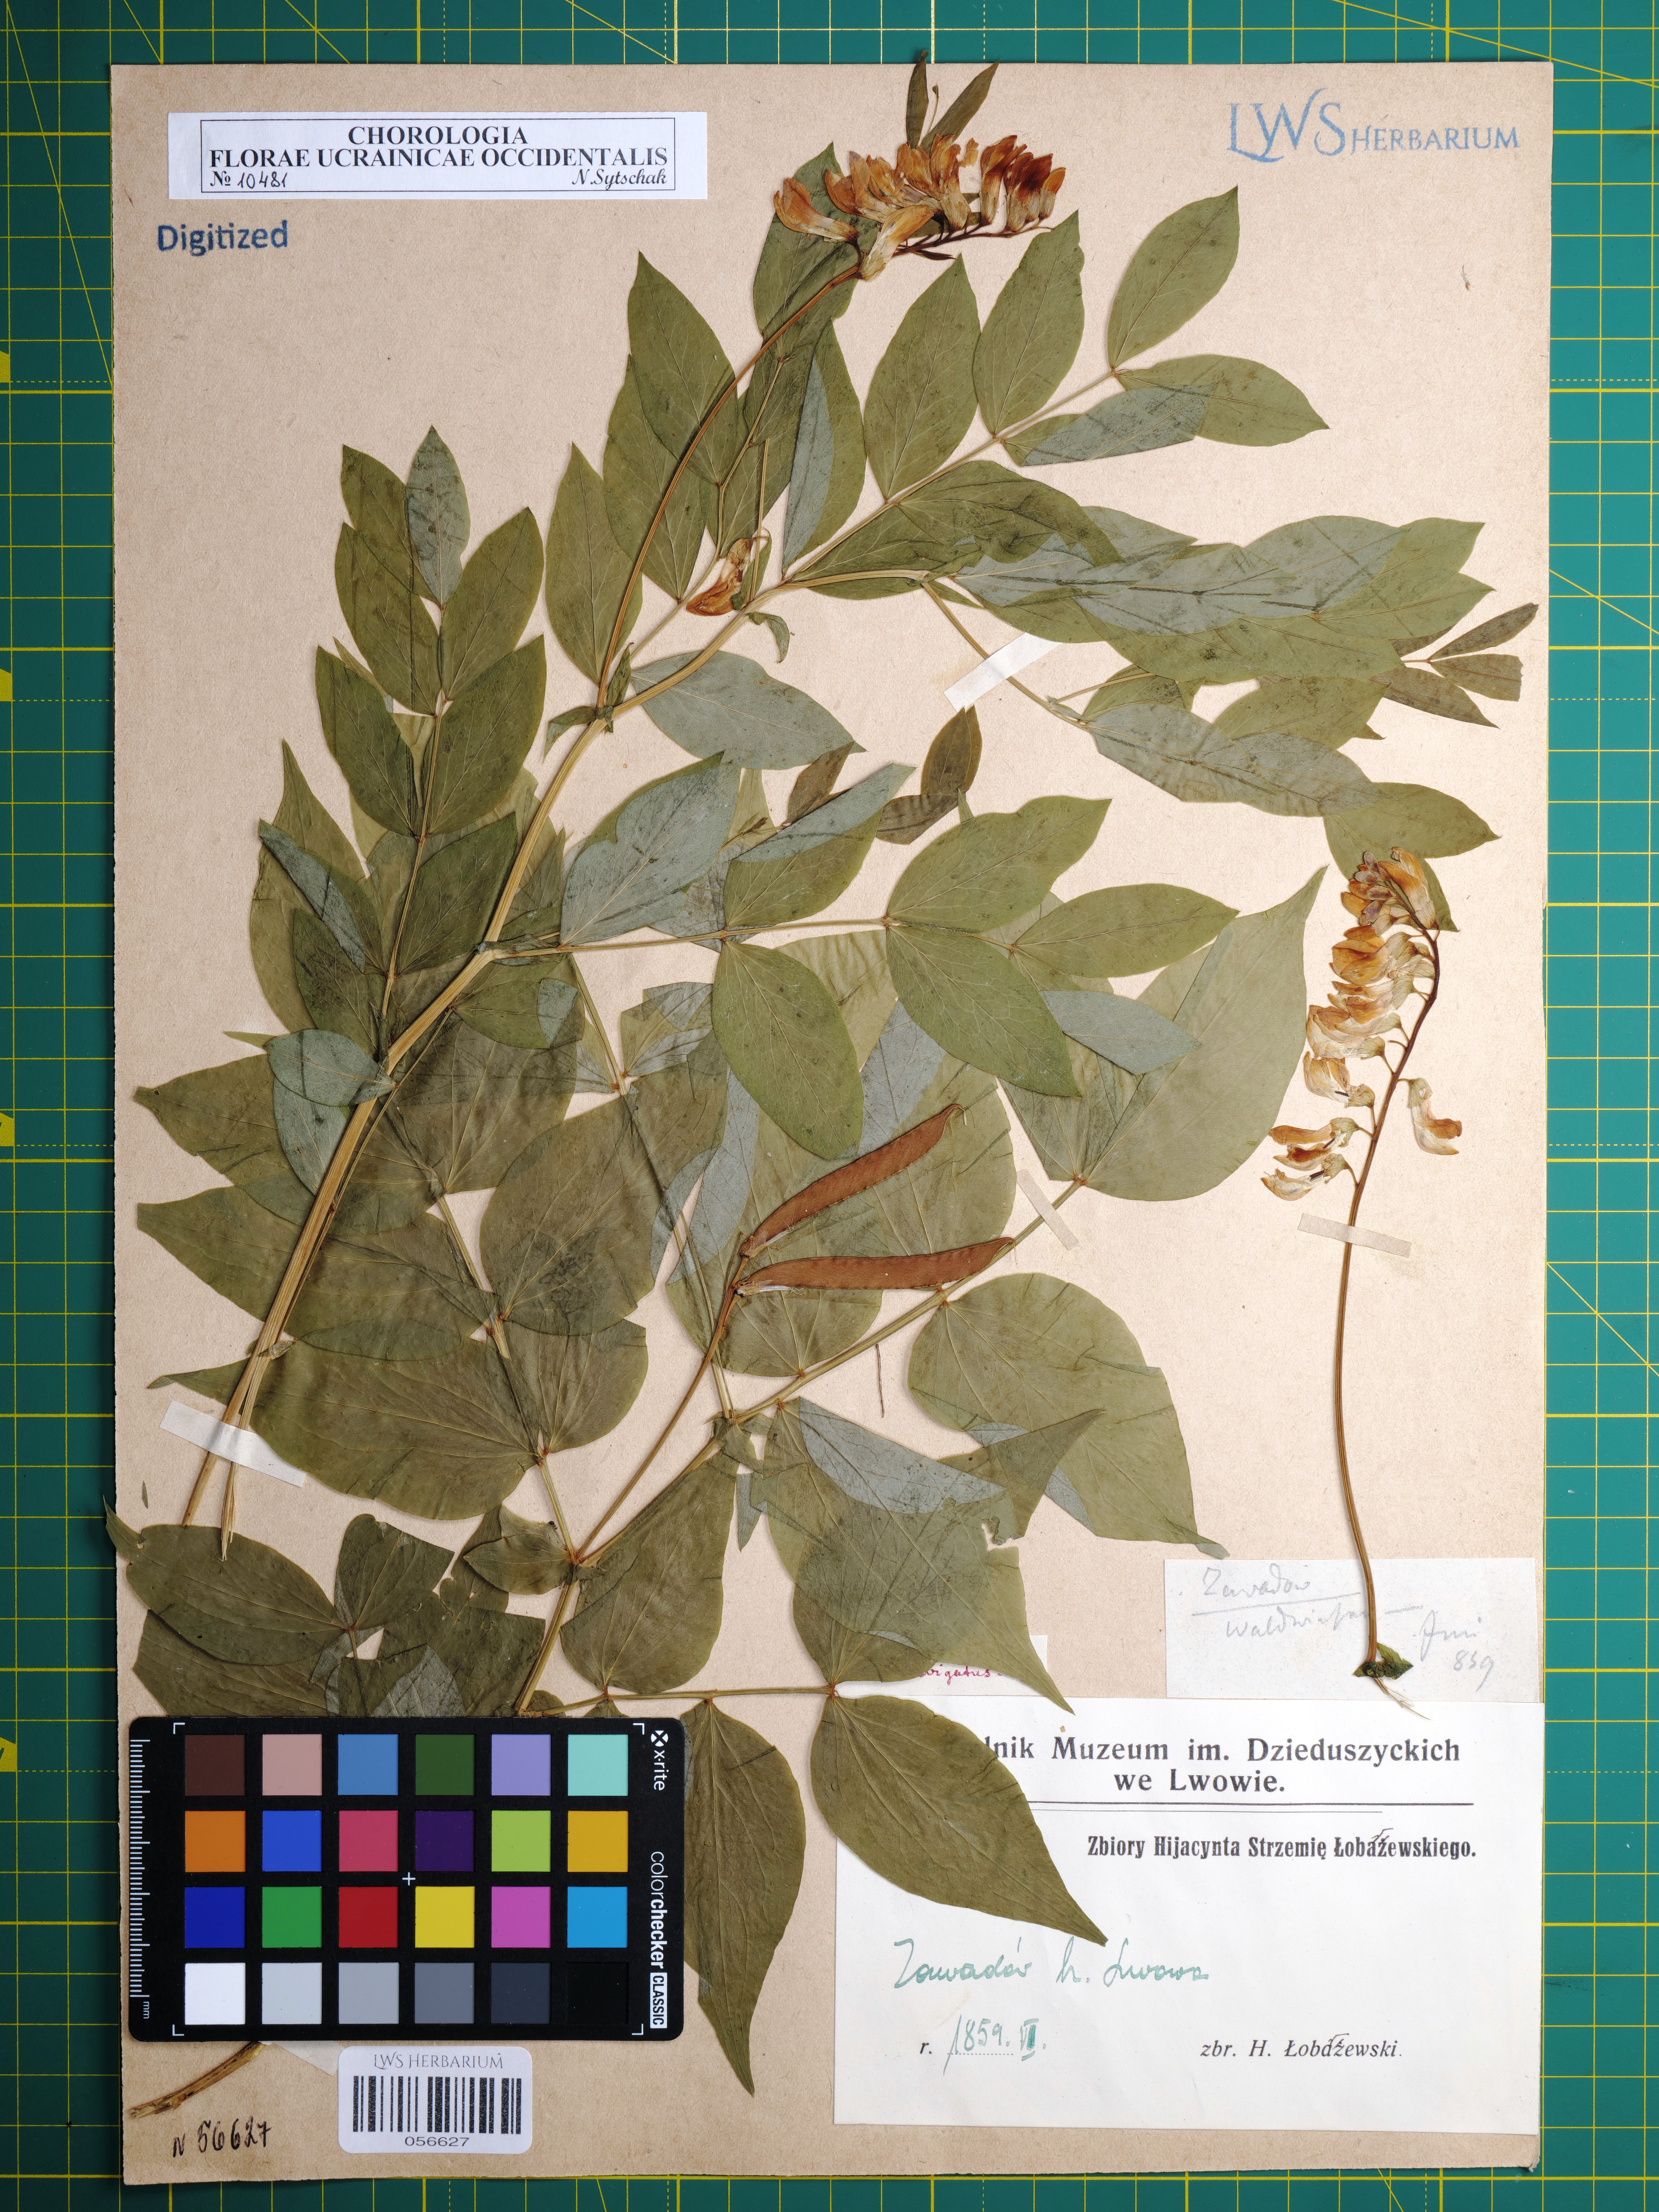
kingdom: Plantae
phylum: Tracheophyta
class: Magnoliopsida
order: Fabales
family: Fabaceae
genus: Lathyrus
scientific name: Lathyrus laevigatus
